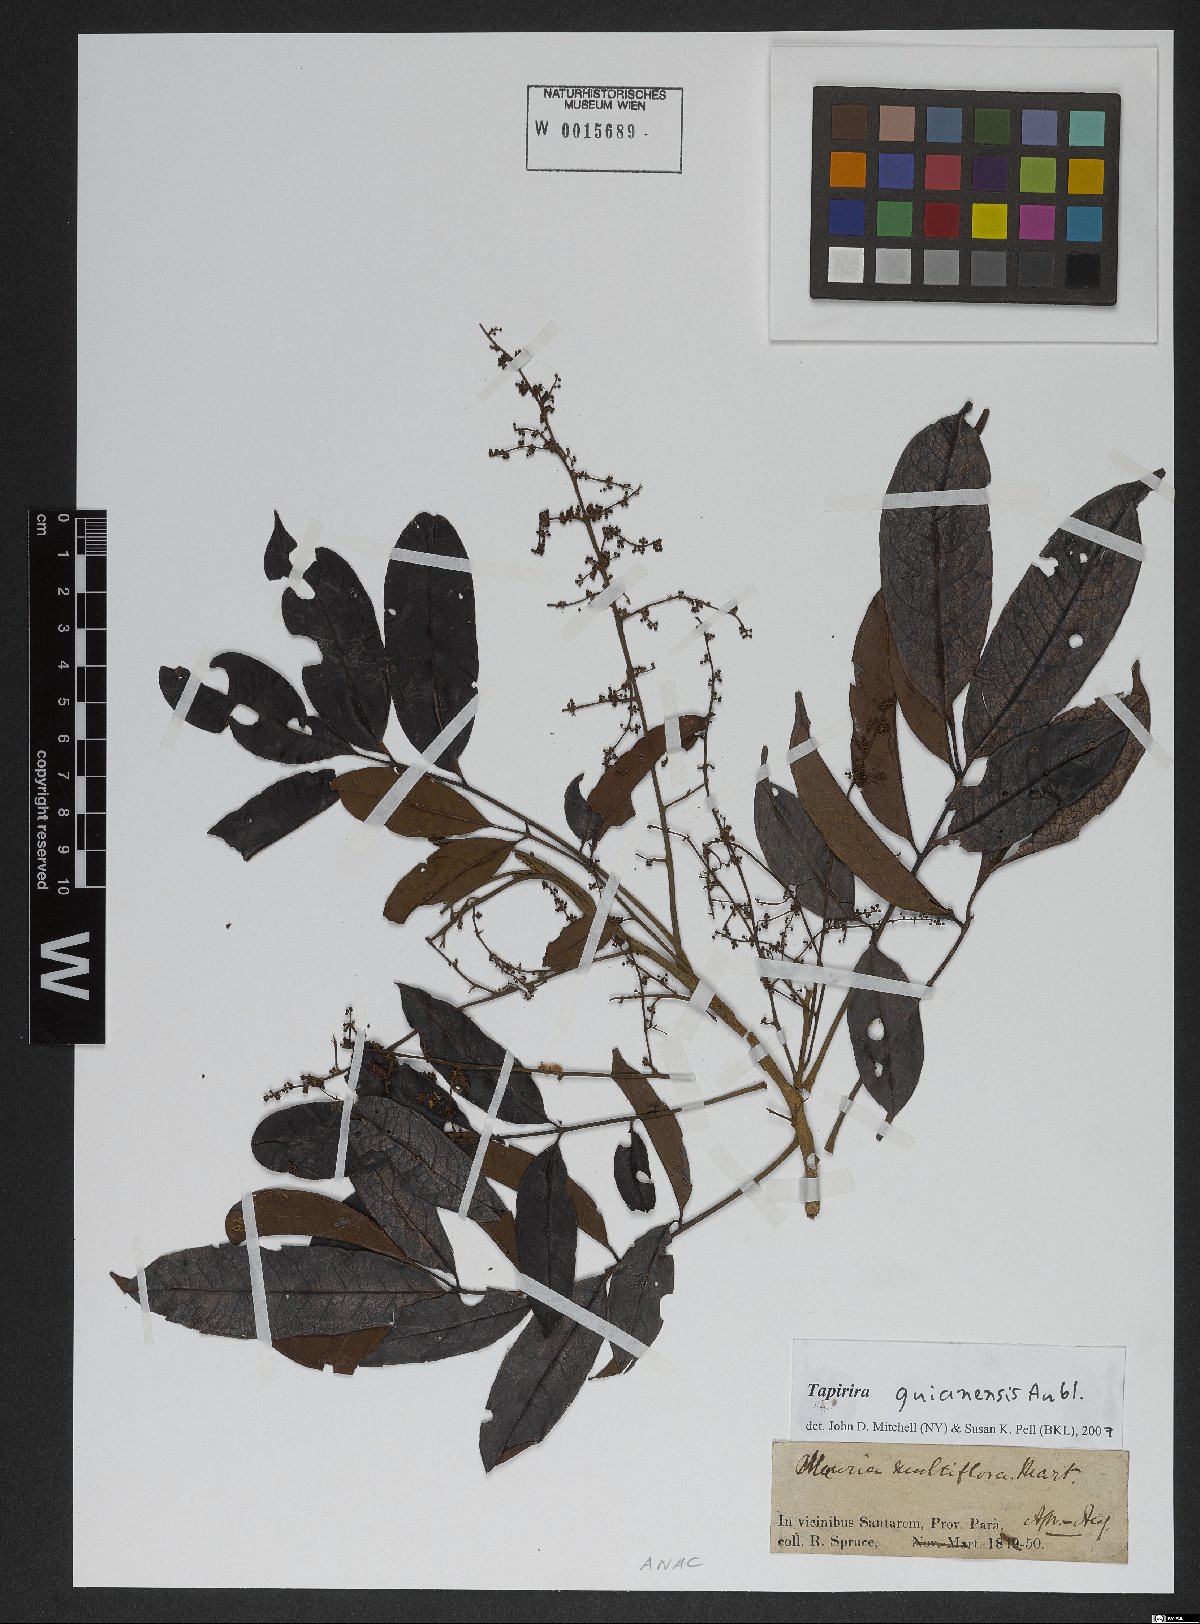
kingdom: Plantae
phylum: Tracheophyta
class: Magnoliopsida
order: Sapindales
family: Anacardiaceae
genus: Tapirira
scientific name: Tapirira guianensis
